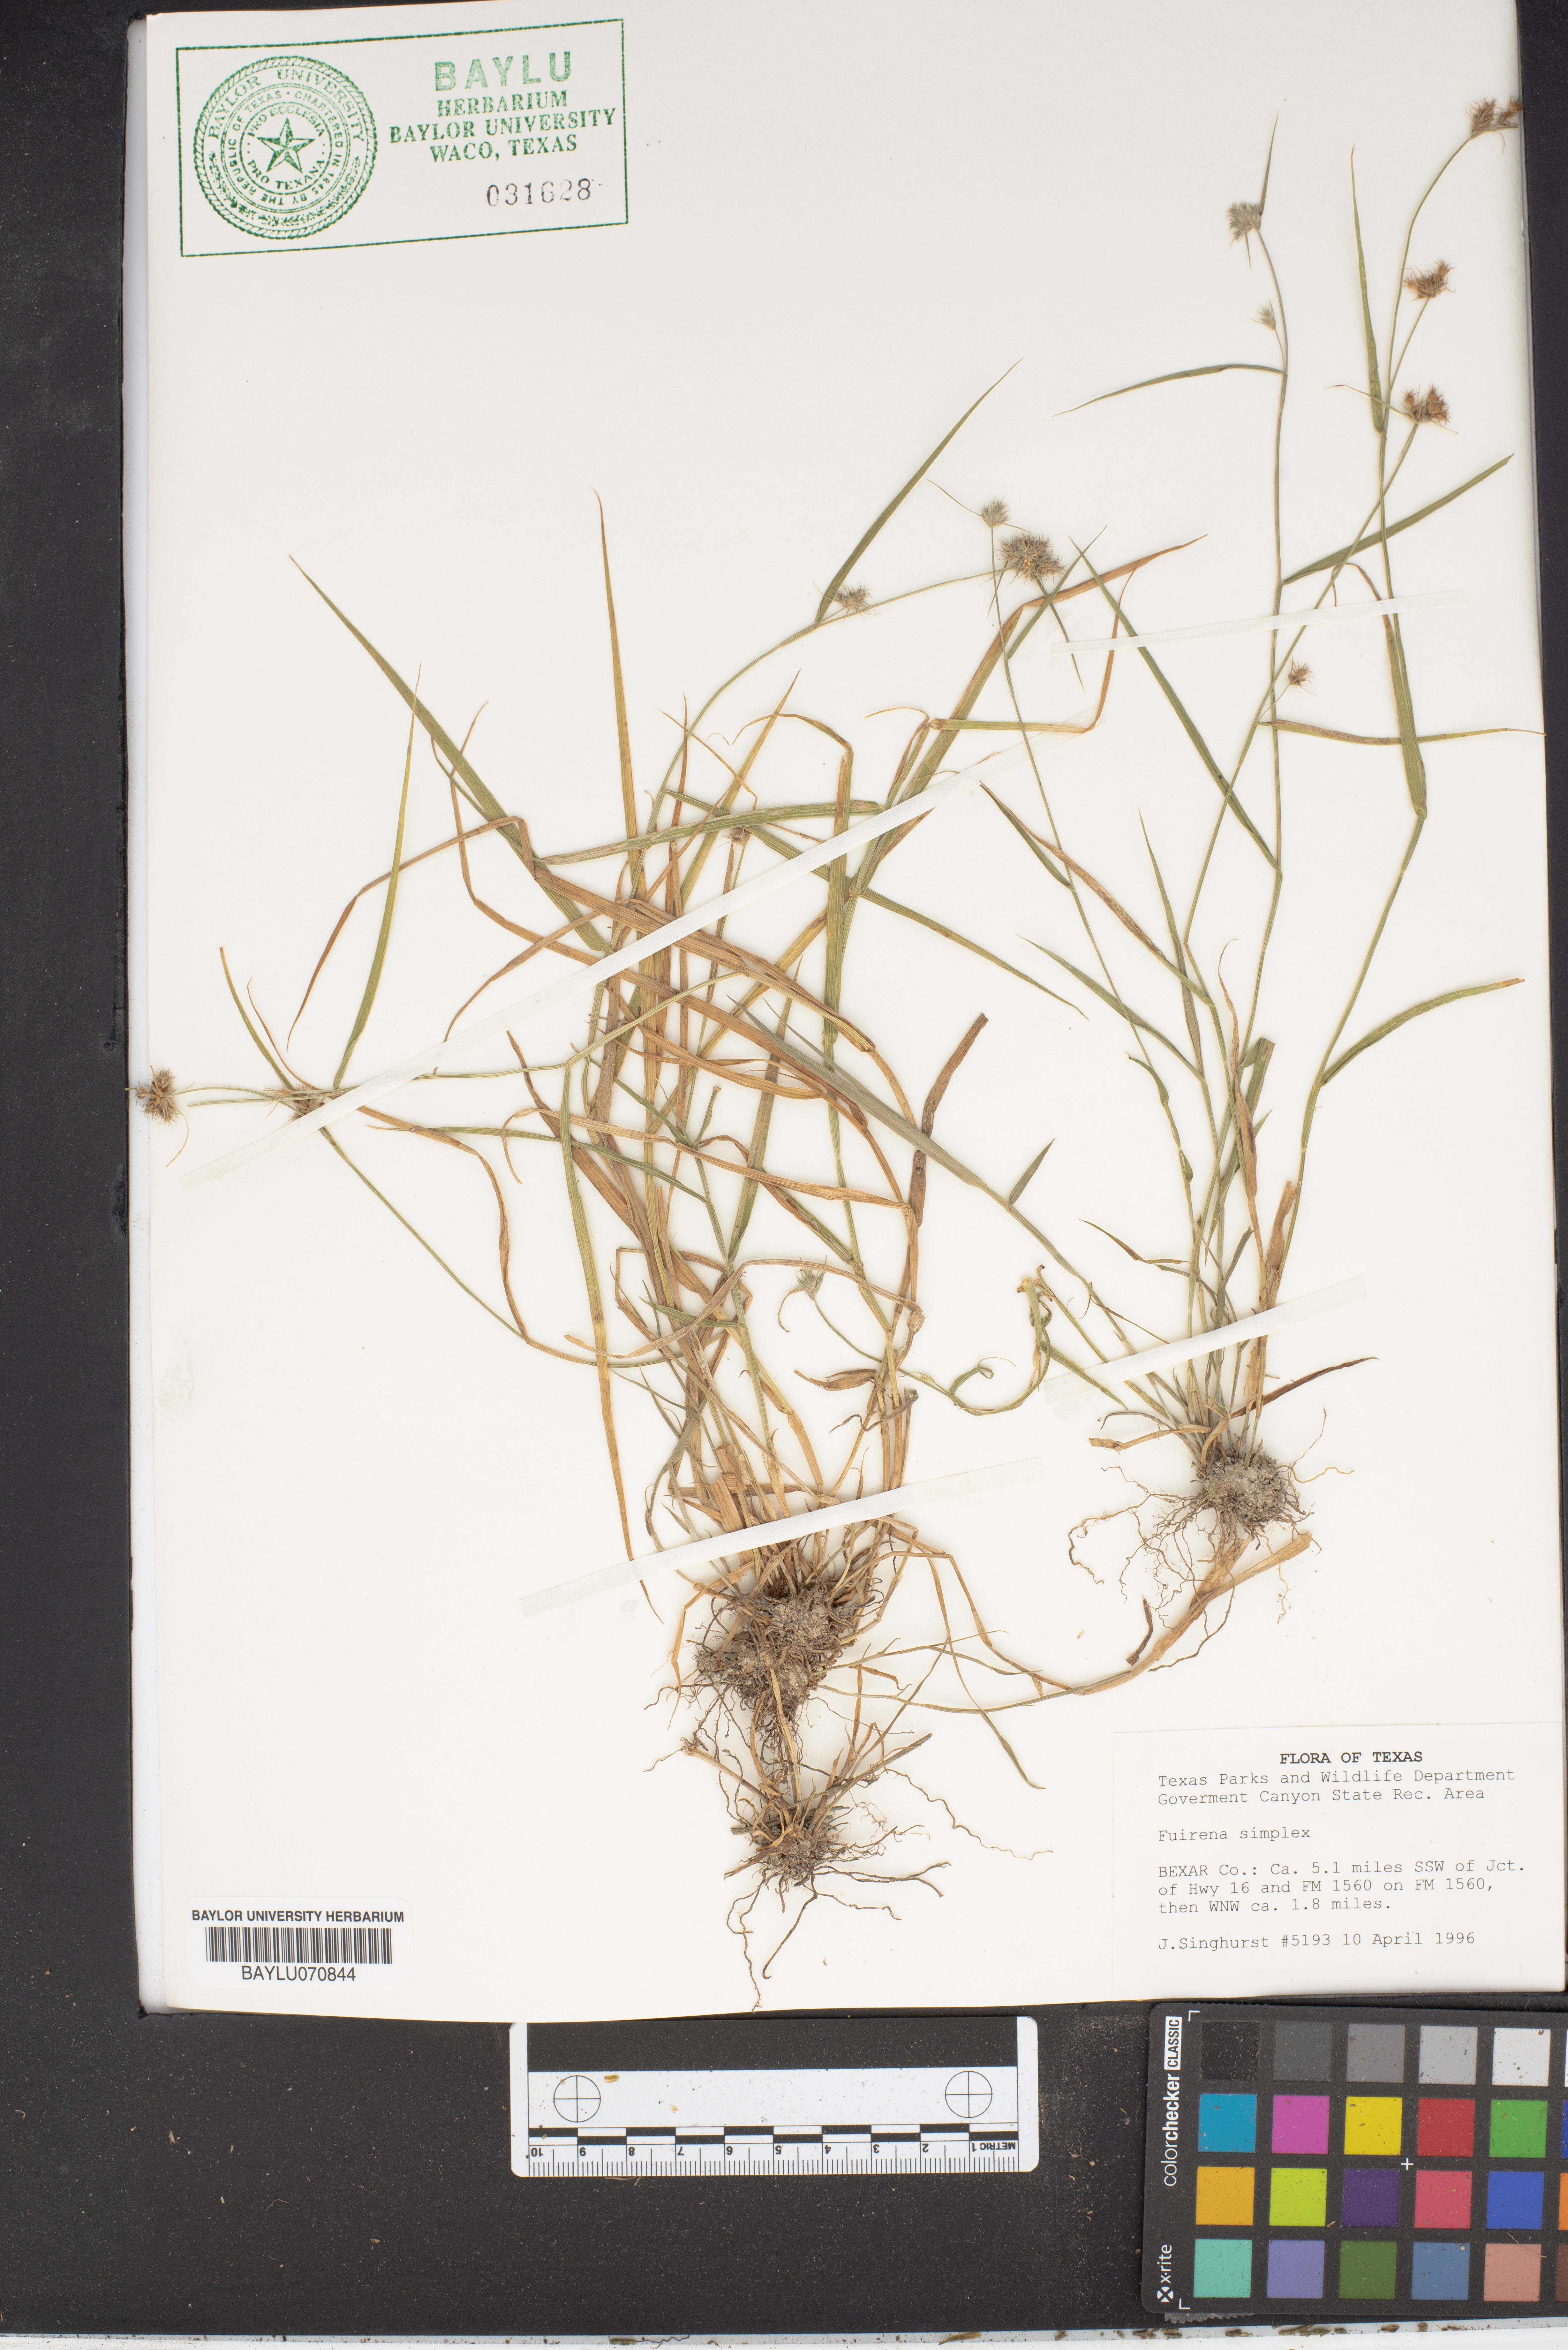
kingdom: Plantae
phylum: Tracheophyta
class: Liliopsida
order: Poales
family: Cyperaceae
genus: Fuirena
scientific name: Fuirena simplex
